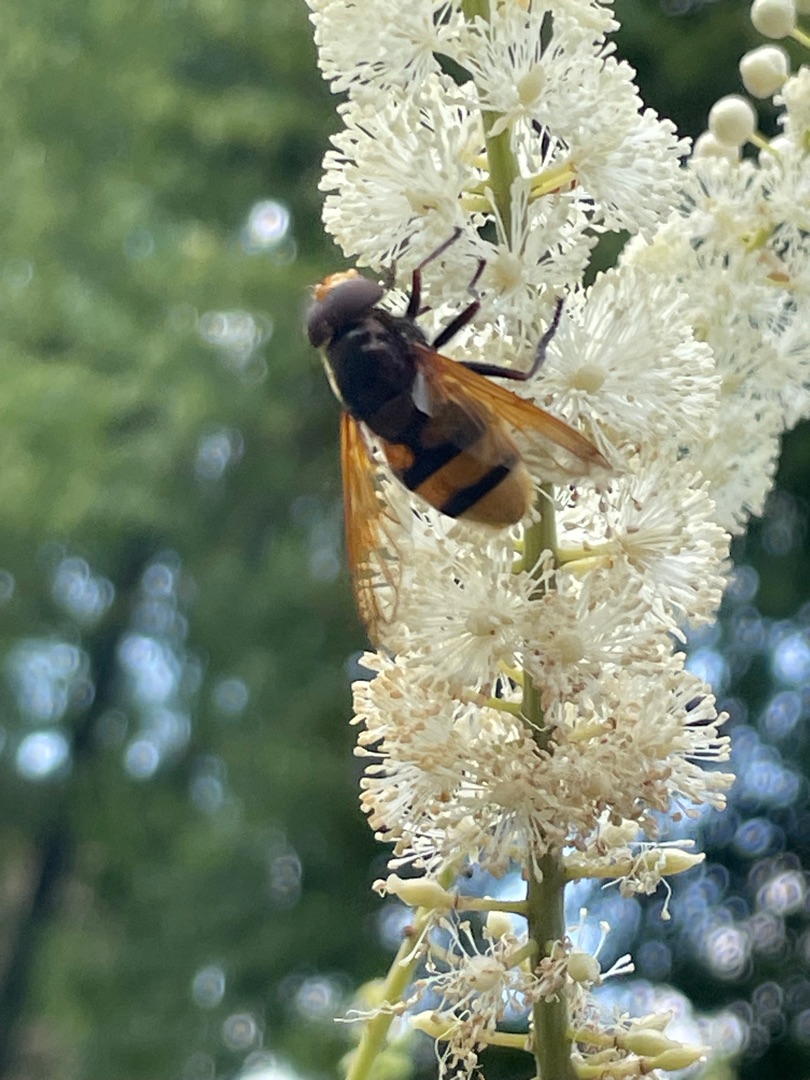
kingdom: Animalia
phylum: Arthropoda
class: Insecta
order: Diptera
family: Syrphidae
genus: Volucella
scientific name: Volucella zonaria
